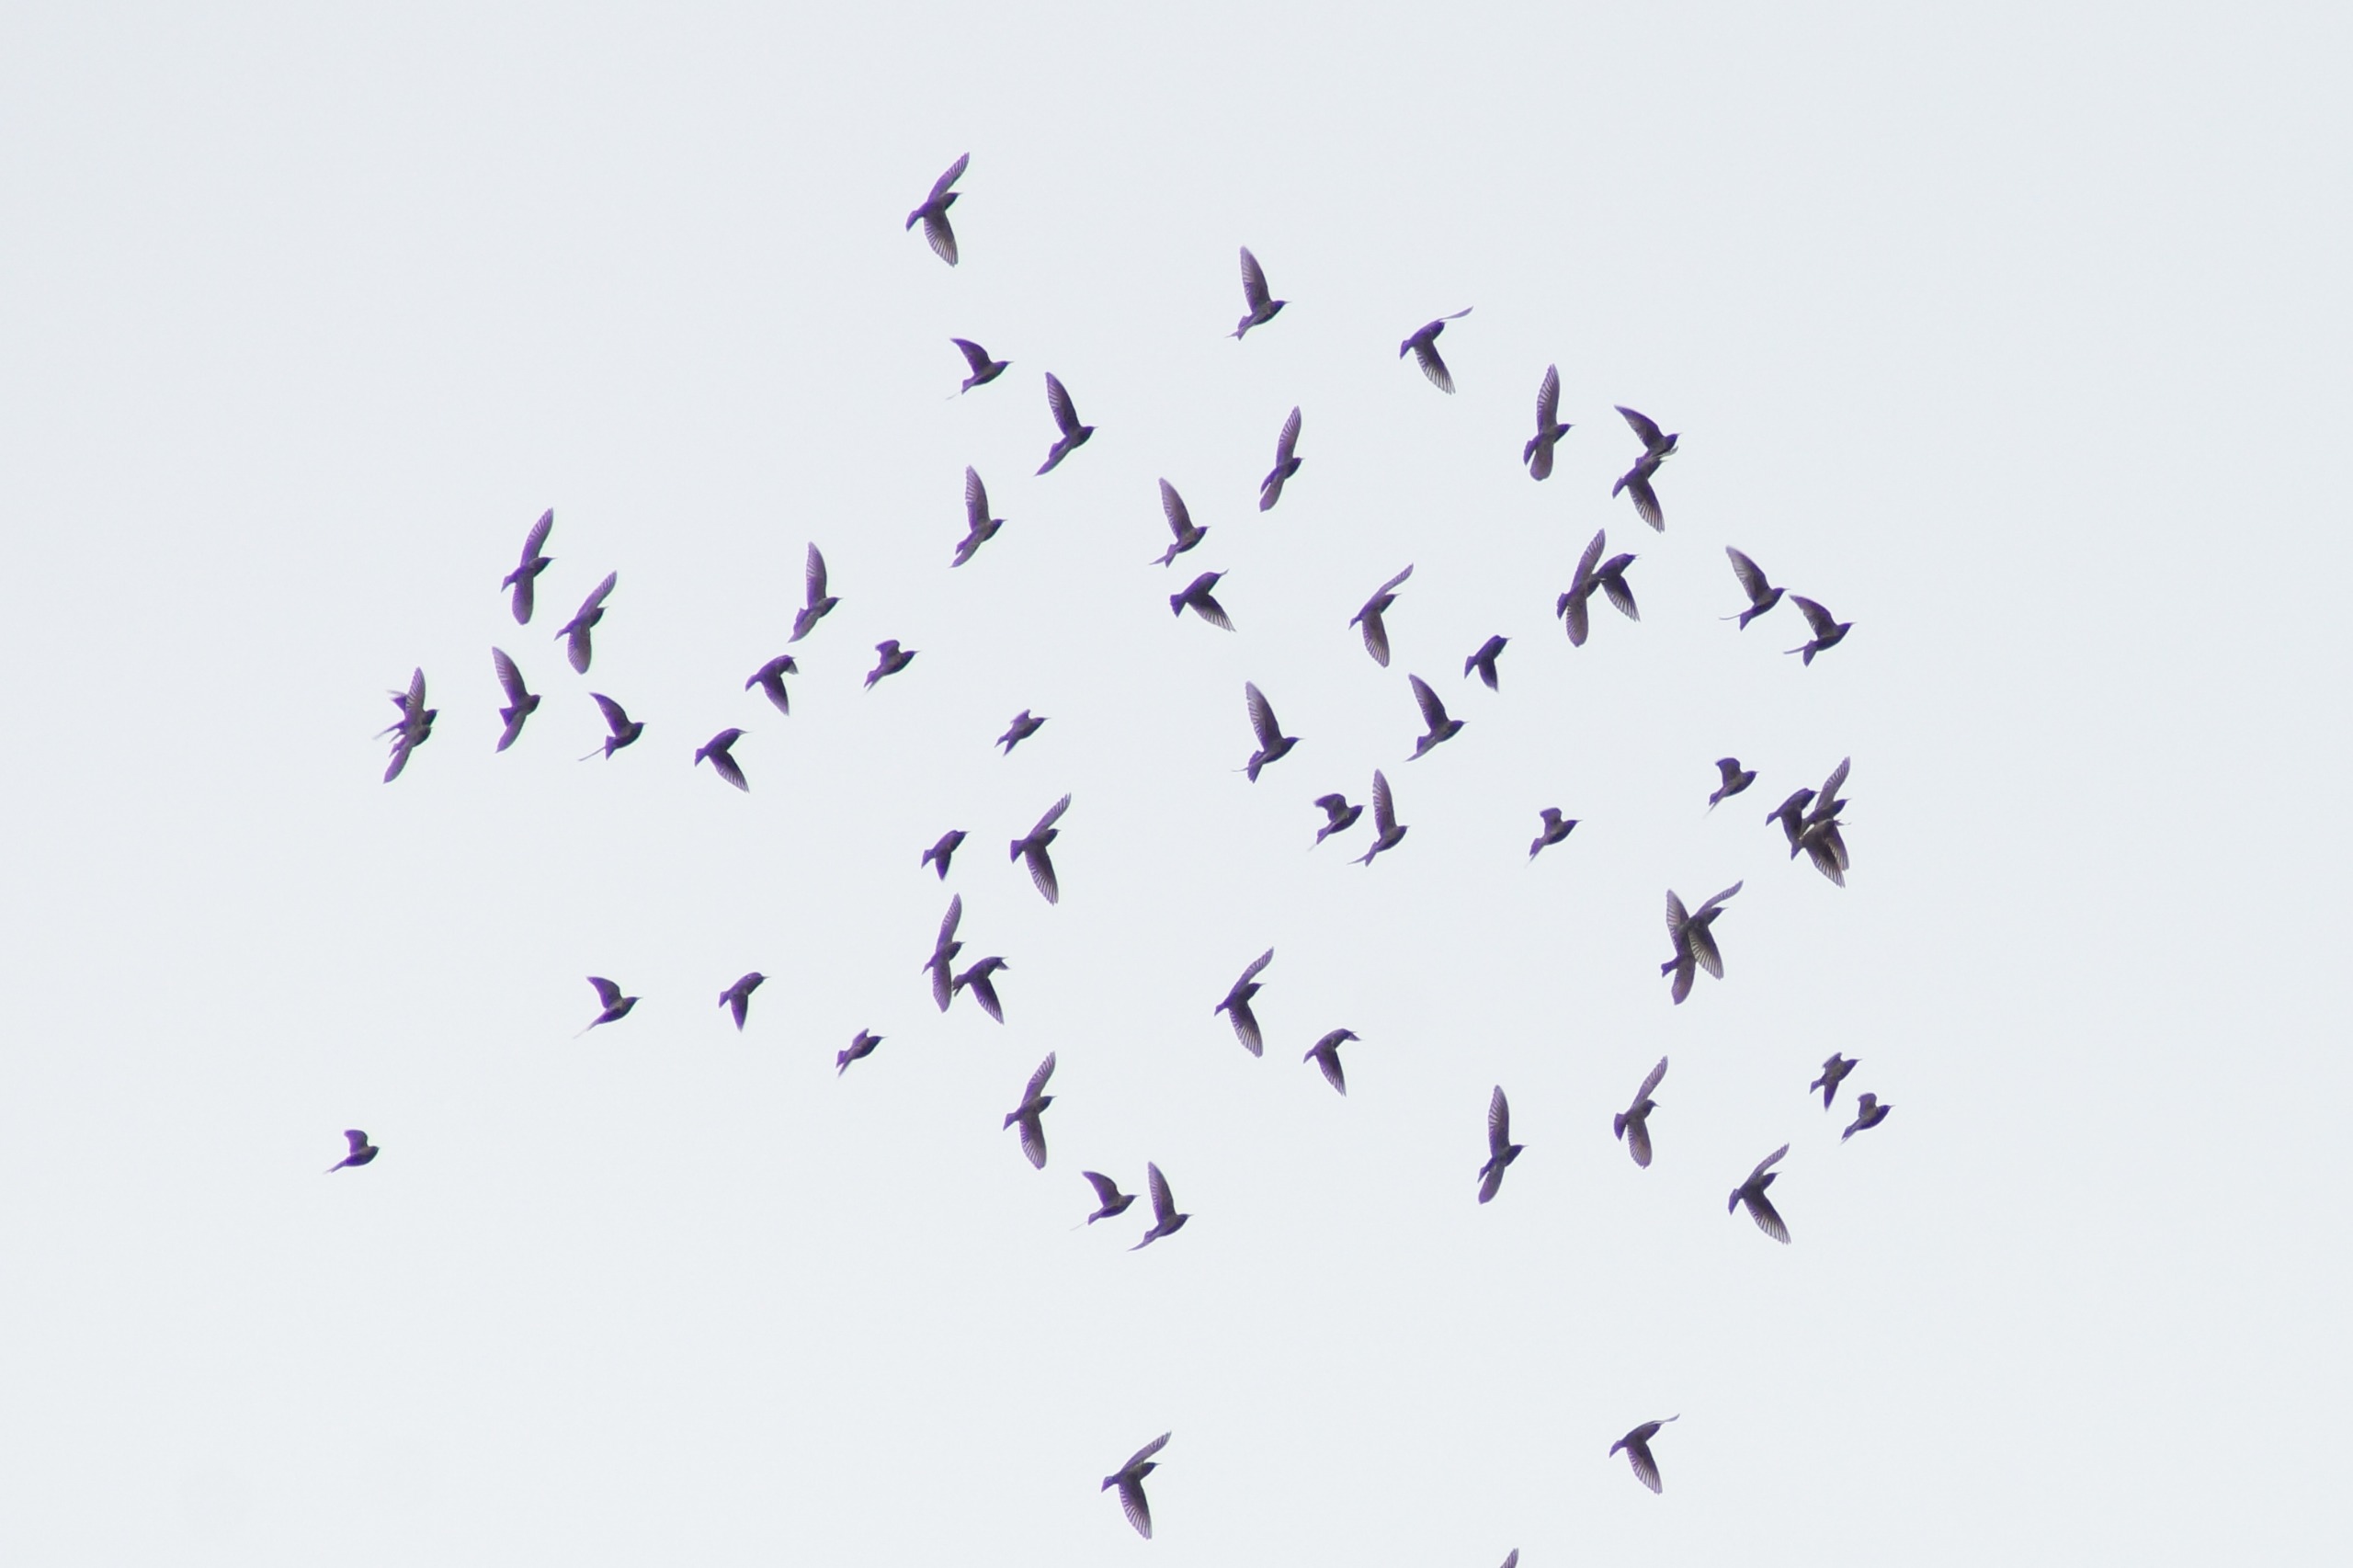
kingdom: Animalia
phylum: Chordata
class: Aves
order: Passeriformes
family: Sturnidae
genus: Sturnus
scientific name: Sturnus vulgaris
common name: Stær
